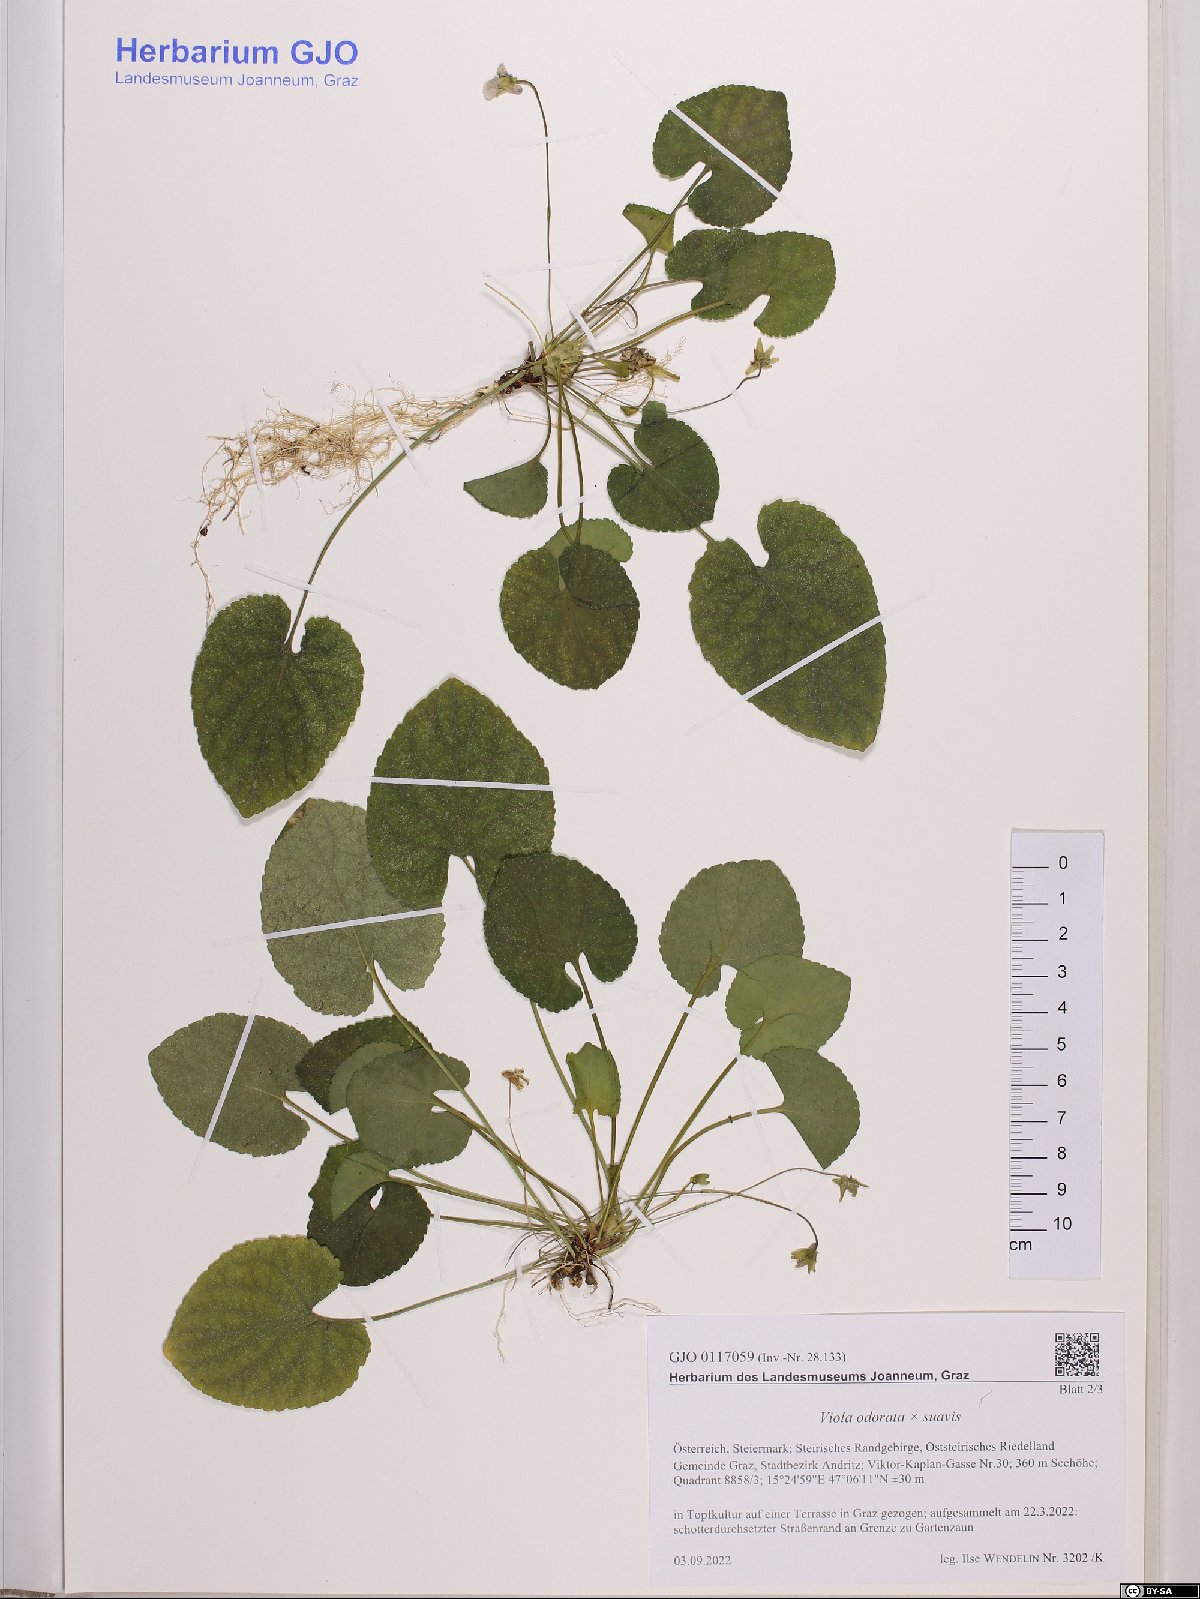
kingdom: Plantae
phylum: Tracheophyta
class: Magnoliopsida
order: Malpighiales
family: Violaceae
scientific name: Violaceae
